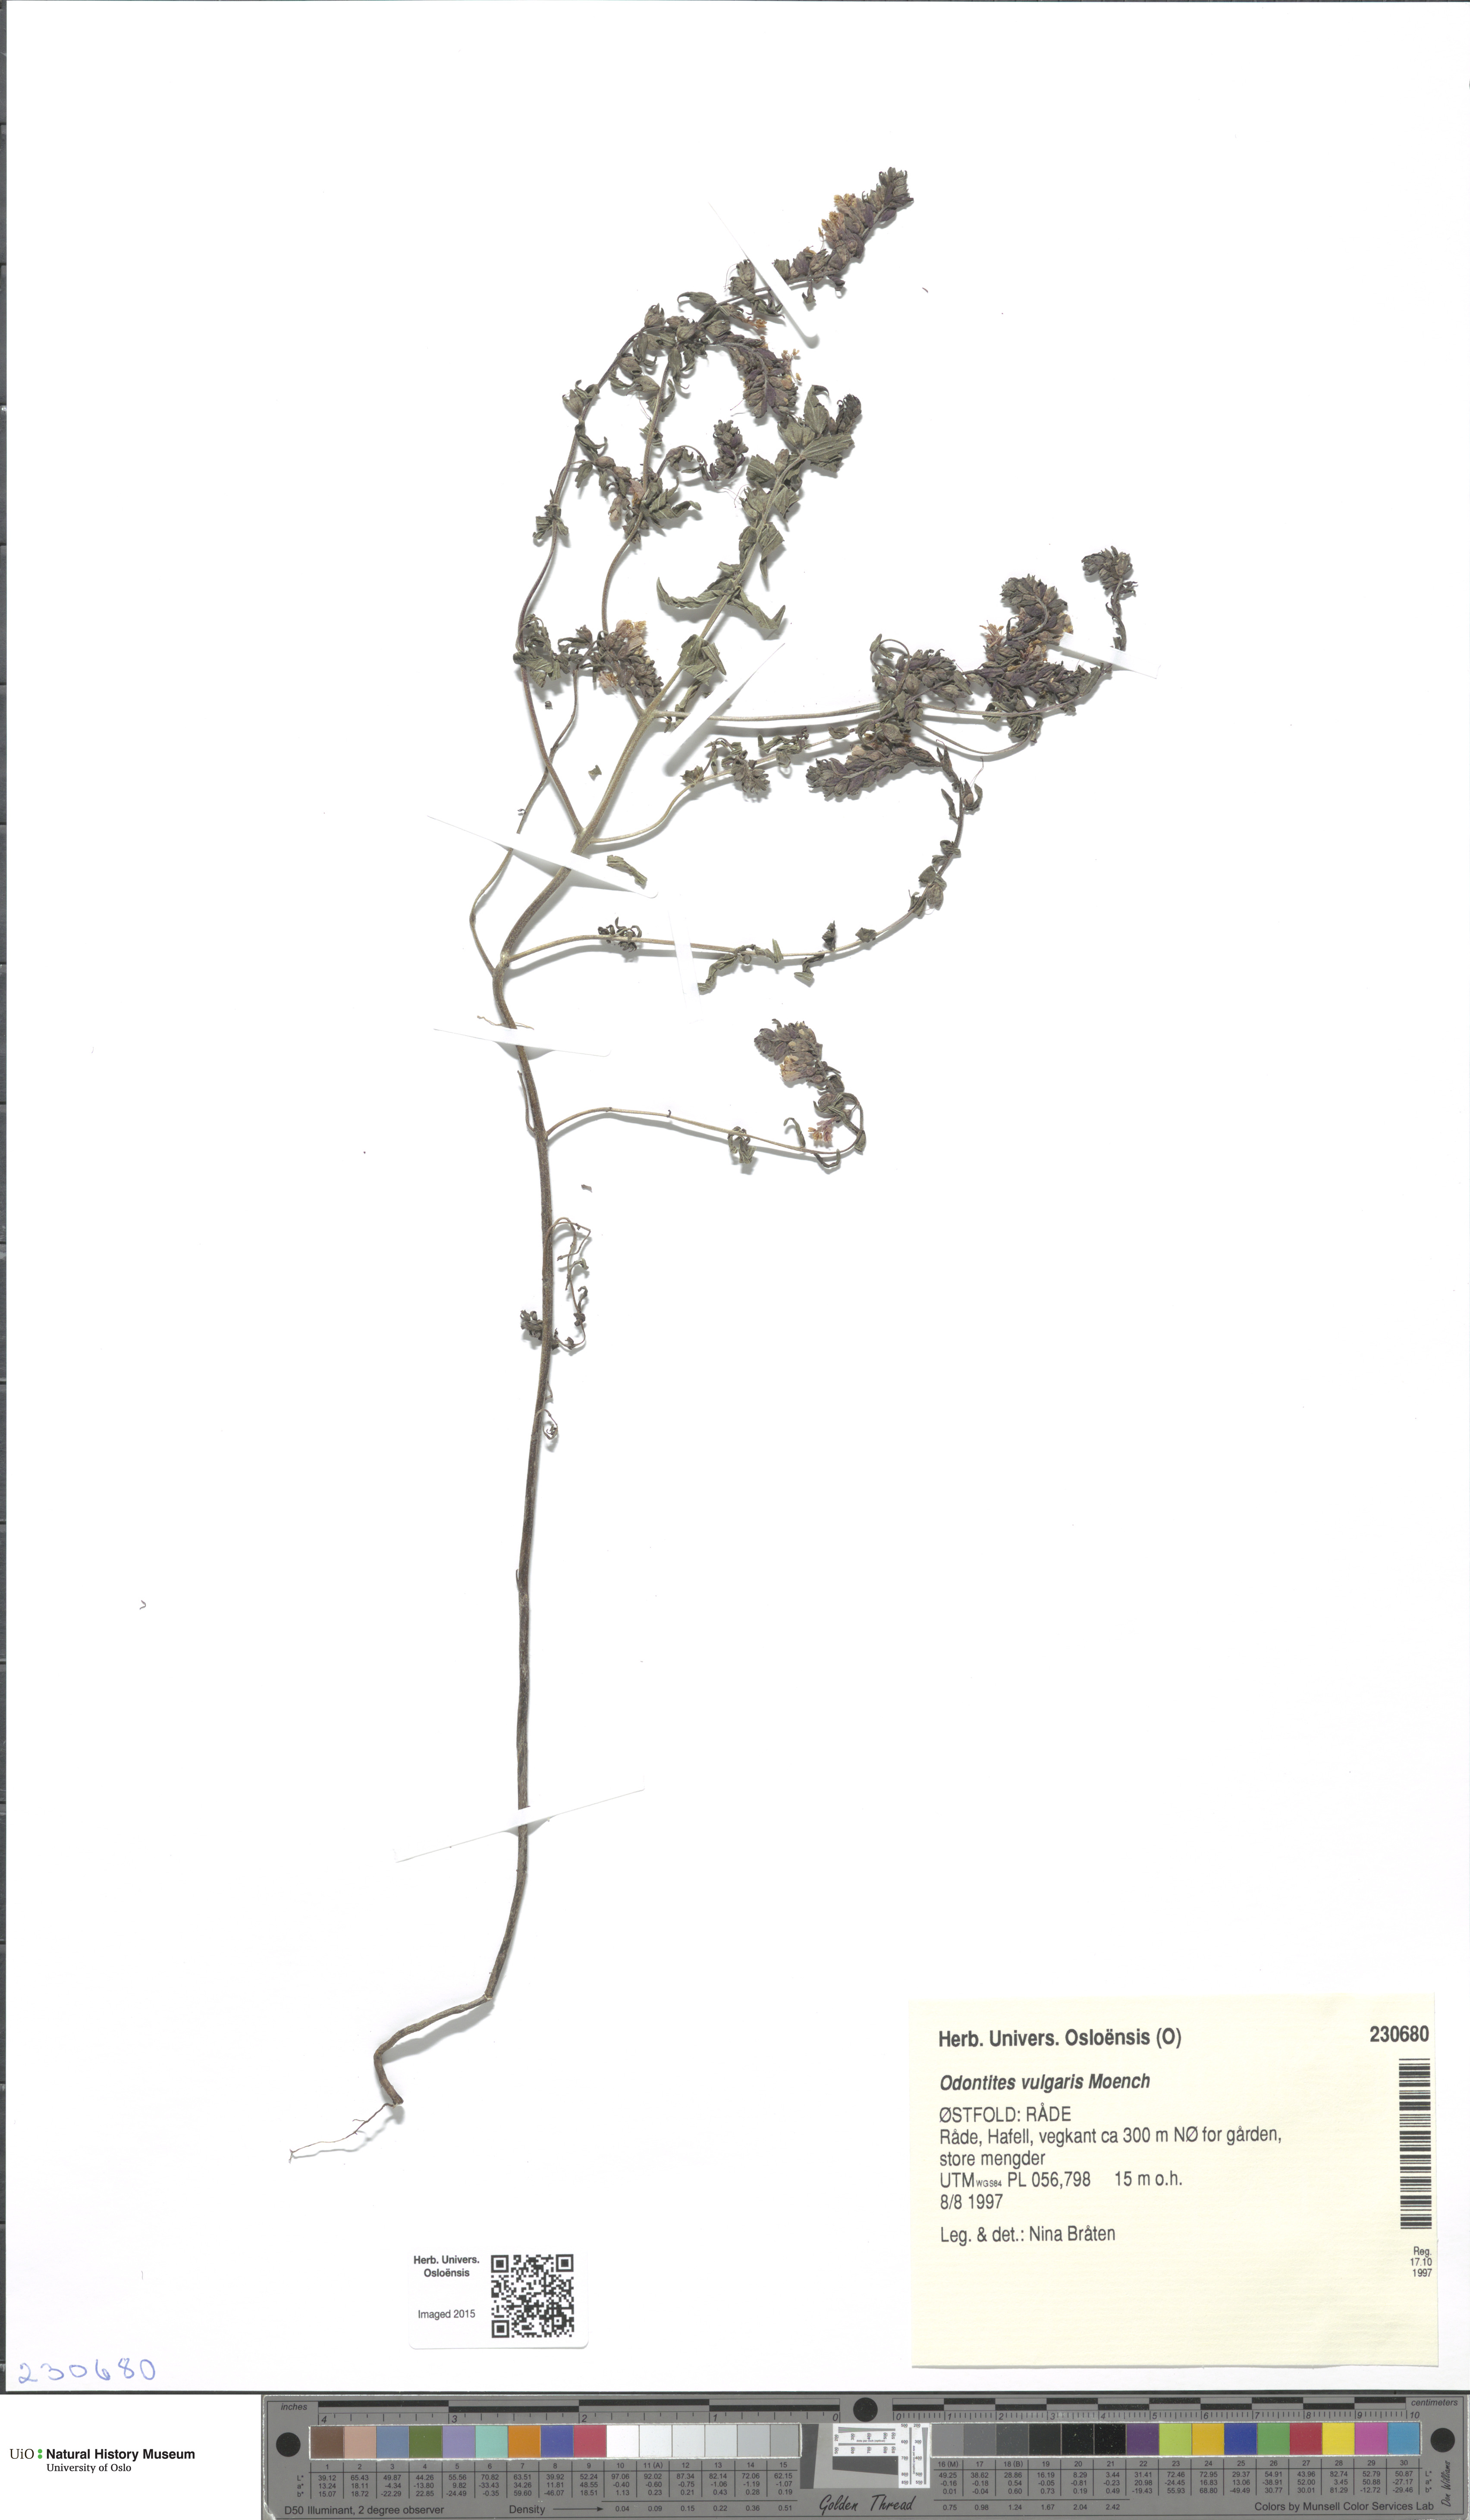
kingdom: Plantae
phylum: Tracheophyta
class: Magnoliopsida
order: Lamiales
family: Orobanchaceae
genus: Odontites
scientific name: Odontites vulgaris
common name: Broomrape
